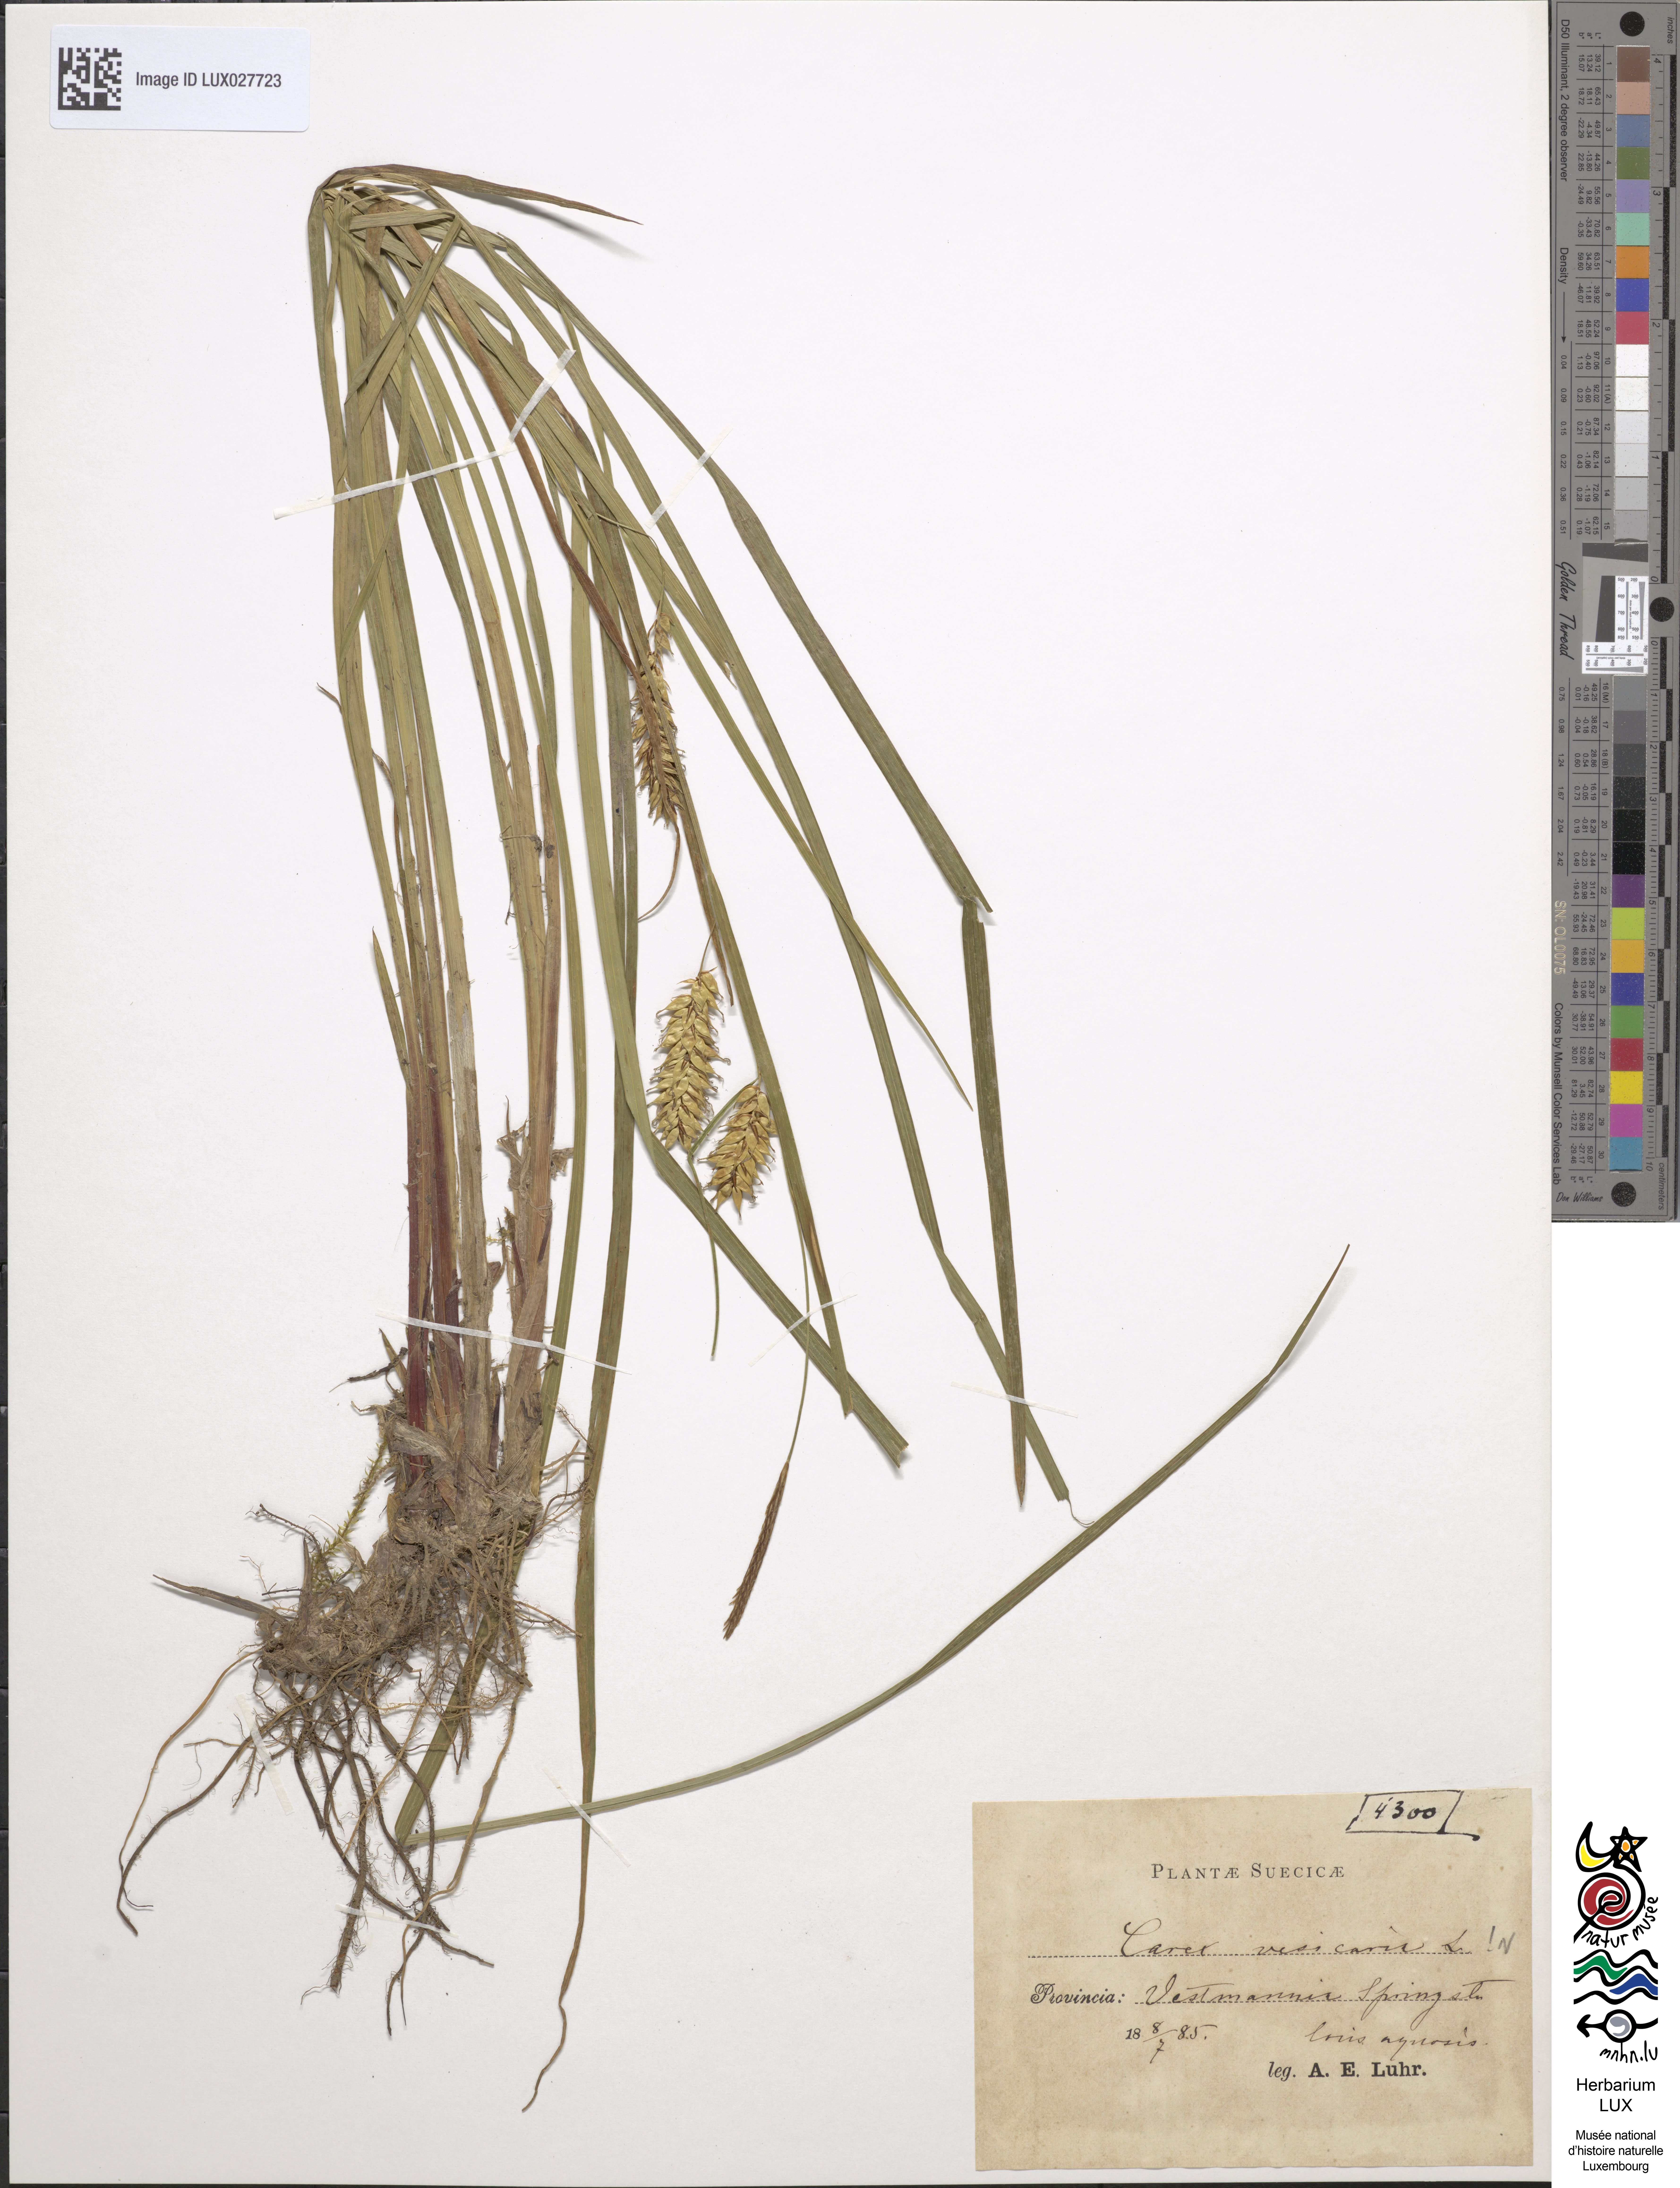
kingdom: Plantae
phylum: Tracheophyta
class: Liliopsida
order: Poales
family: Cyperaceae
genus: Carex
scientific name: Carex vesicaria
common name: Bladder-sedge
